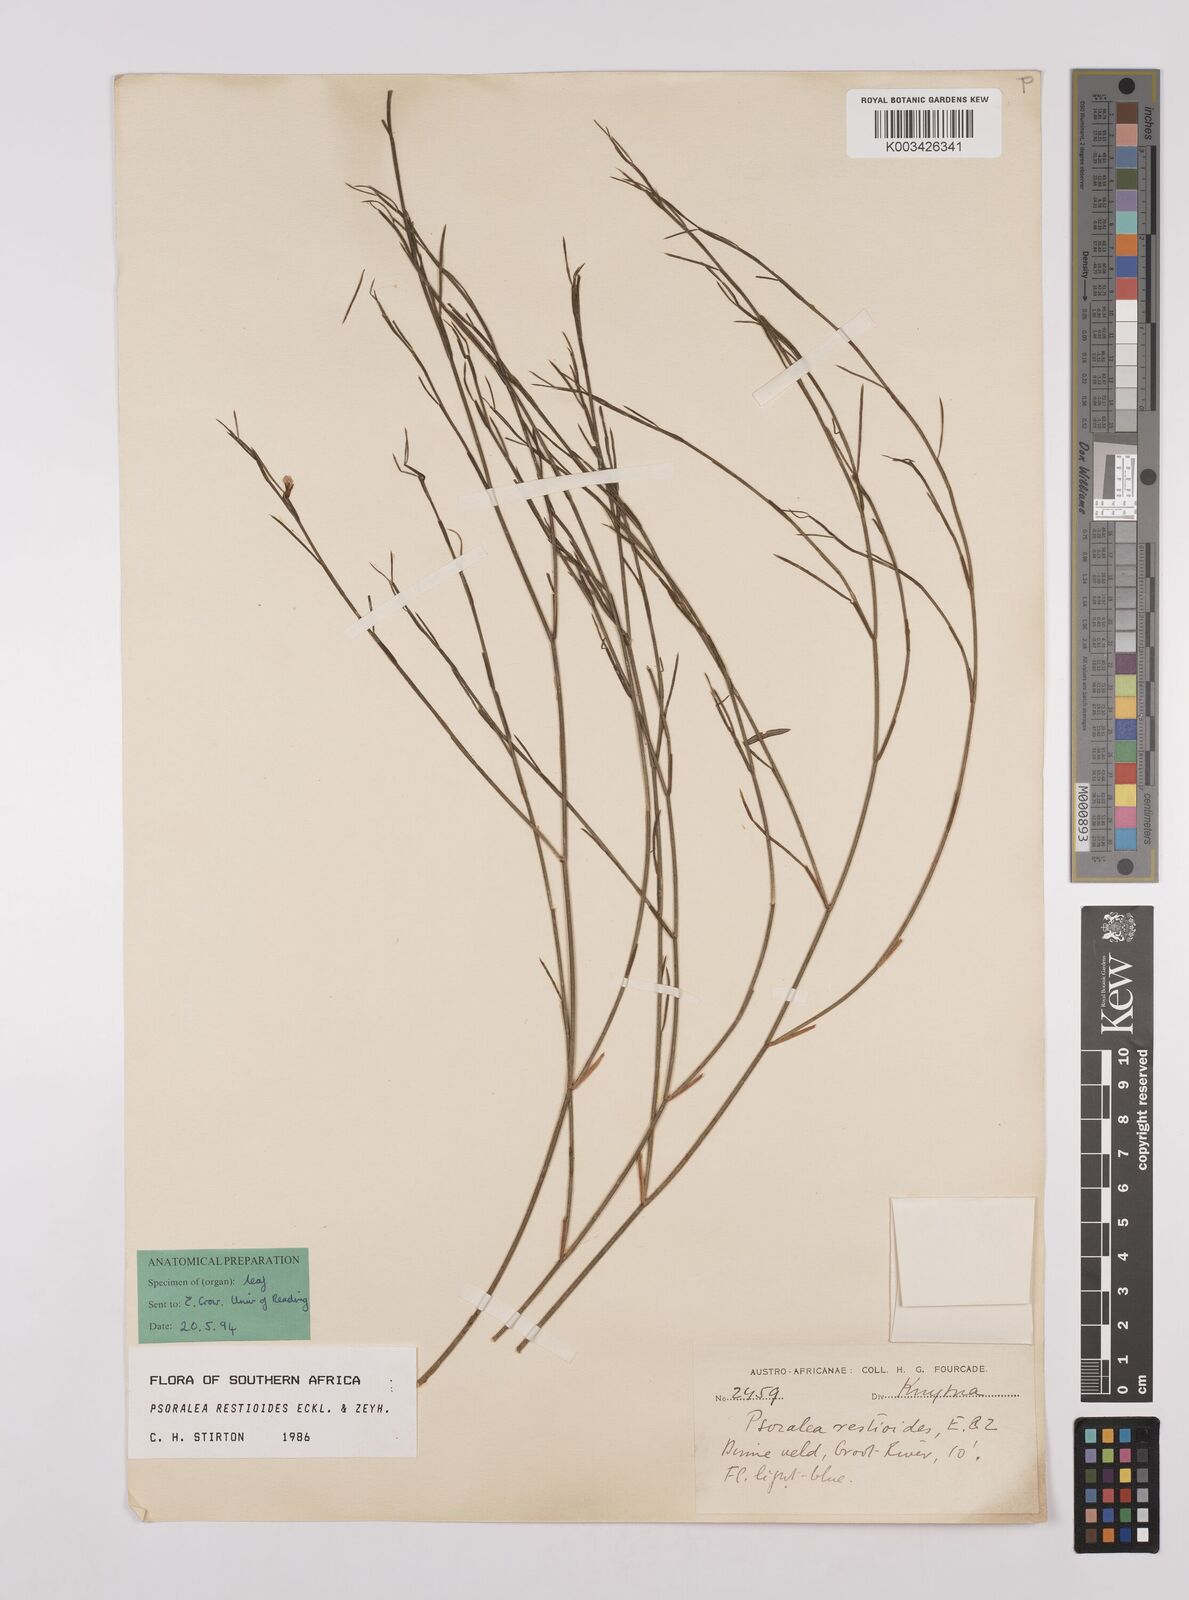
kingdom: Plantae
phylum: Tracheophyta
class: Magnoliopsida
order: Fabales
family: Fabaceae
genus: Psoralea
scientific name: Psoralea restioides
